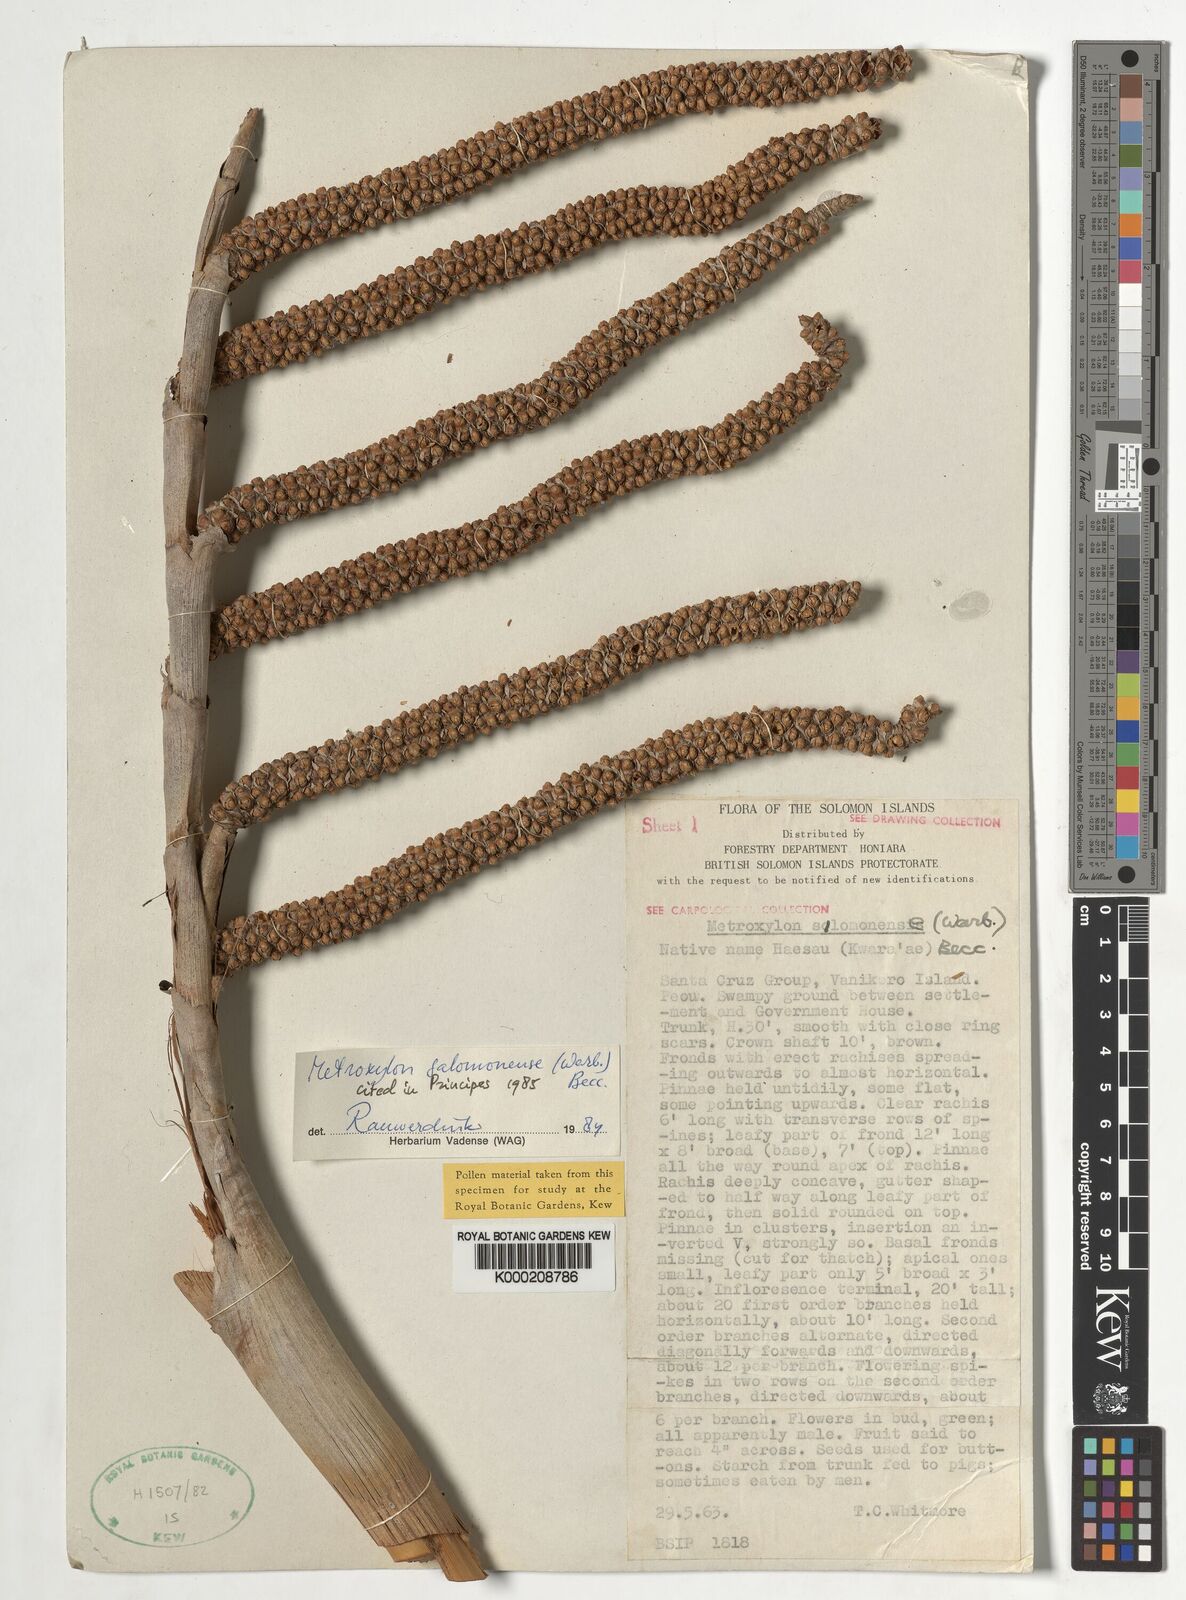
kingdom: Plantae
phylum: Tracheophyta
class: Liliopsida
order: Arecales
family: Arecaceae
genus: Metroxylon
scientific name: Metroxylon salomonense
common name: Solomon's sago palm
